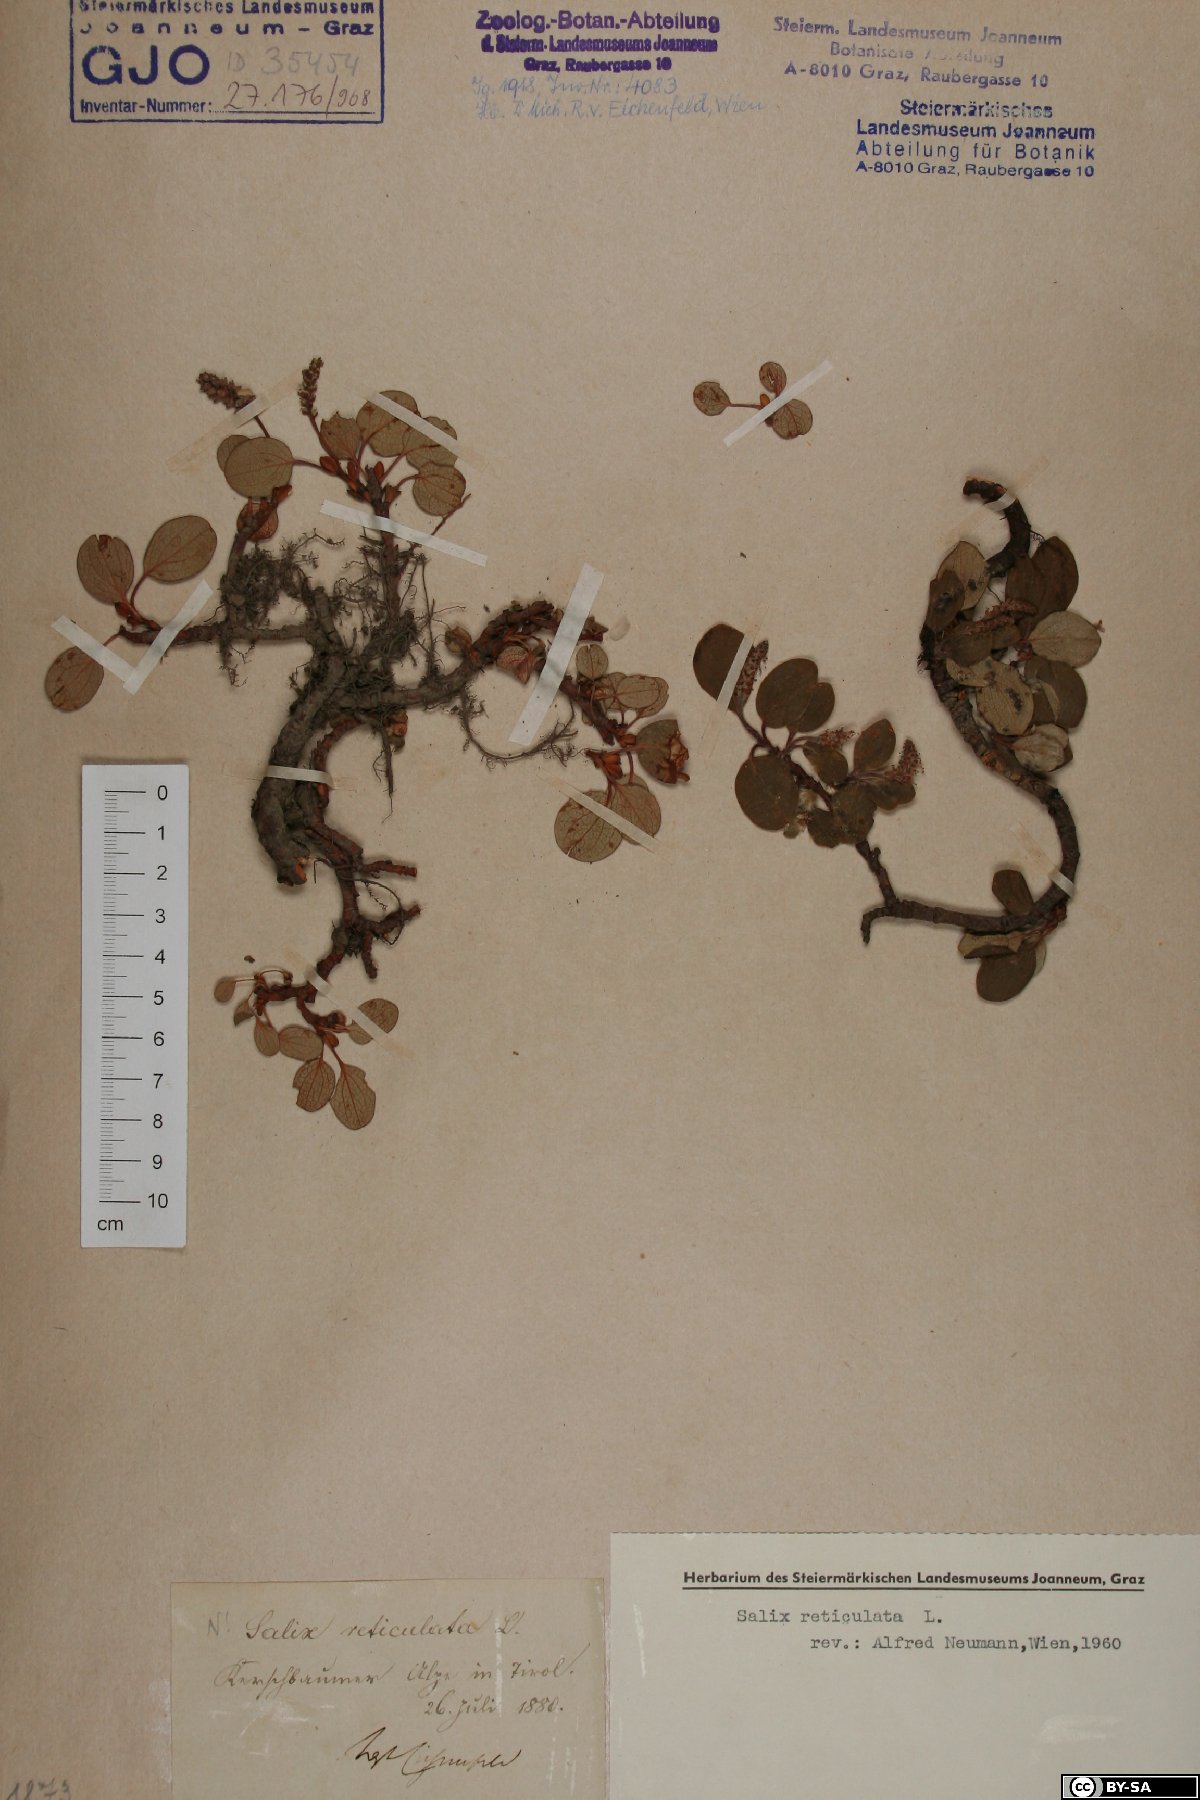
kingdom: Plantae
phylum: Tracheophyta
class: Magnoliopsida
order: Malpighiales
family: Salicaceae
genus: Salix
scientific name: Salix reticulata
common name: Net-leaved willow
